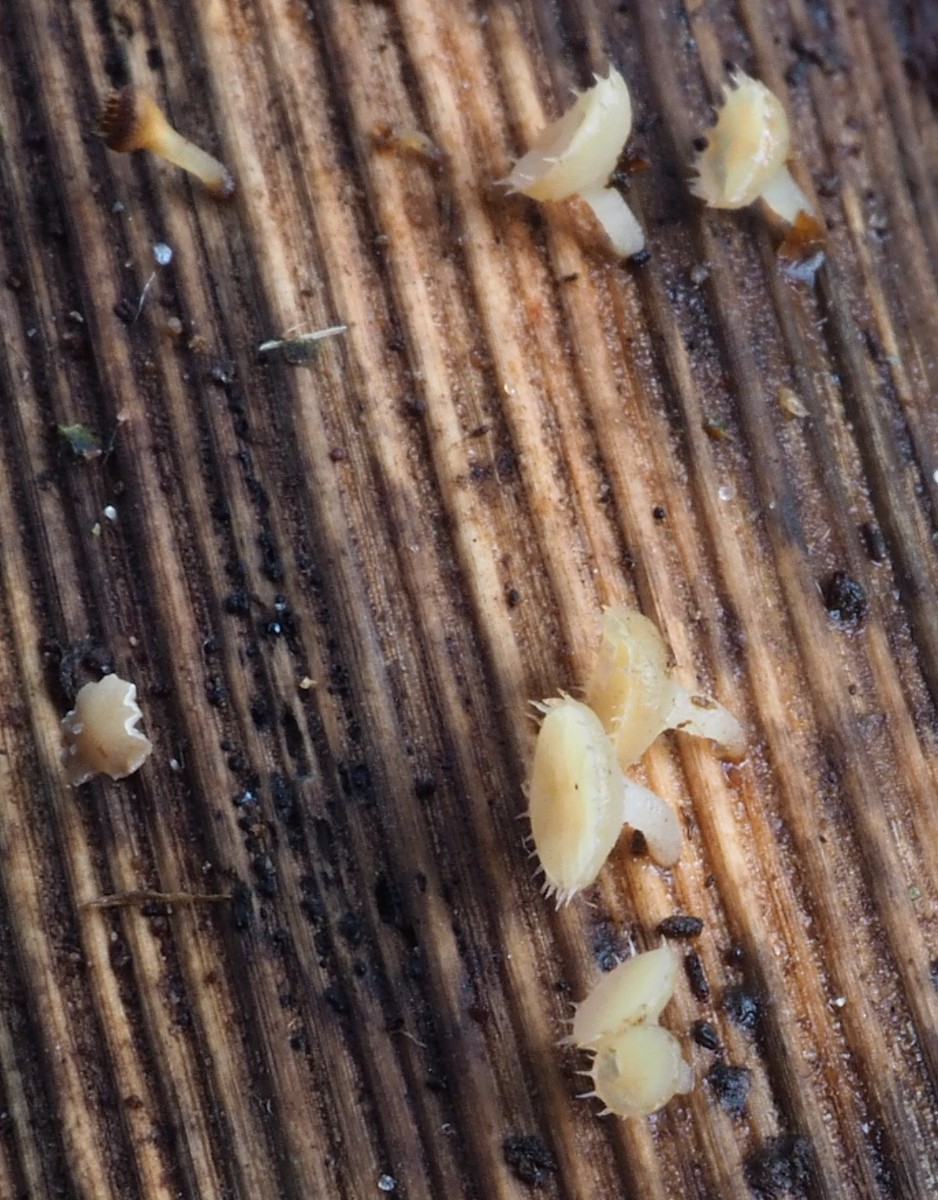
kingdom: Fungi
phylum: Ascomycota
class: Leotiomycetes
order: Helotiales
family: Helotiaceae
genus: Cyathicula
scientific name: Cyathicula coronata
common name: krone-stilkskive
